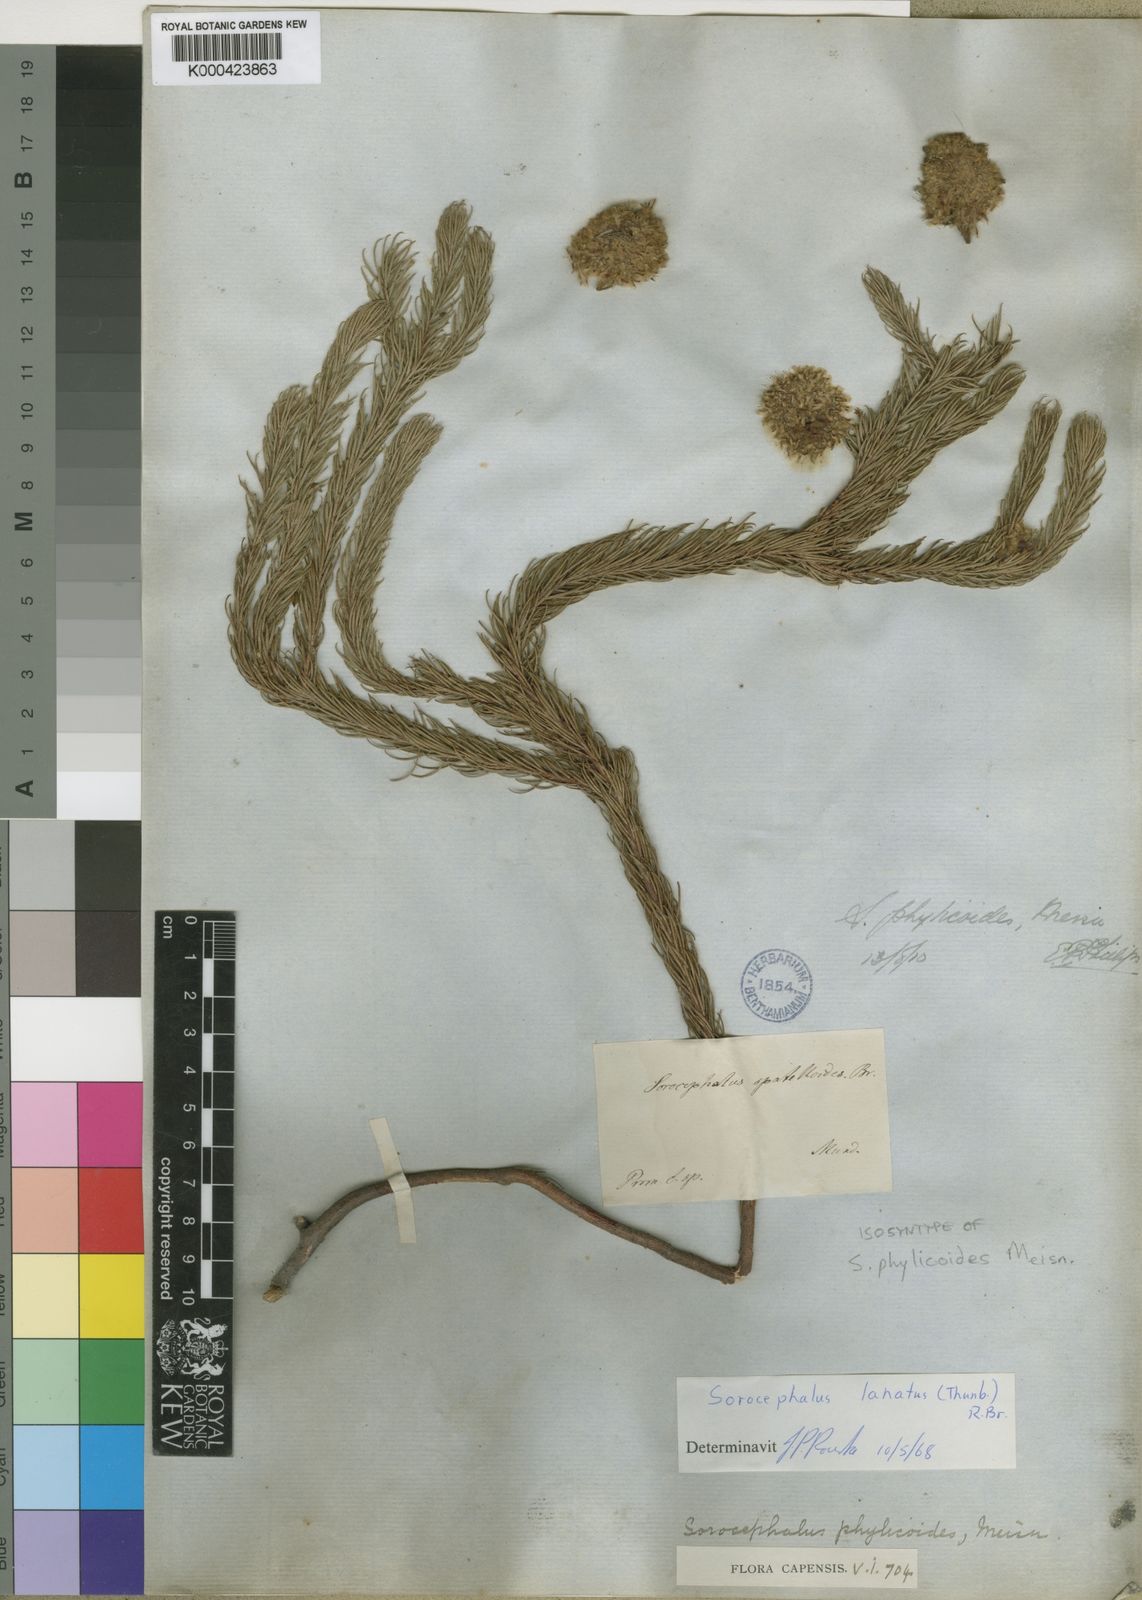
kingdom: Plantae
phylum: Tracheophyta
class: Magnoliopsida
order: Proteales
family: Proteaceae
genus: Sorocephalus
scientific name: Sorocephalus lanatus
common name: Common clusterhead
